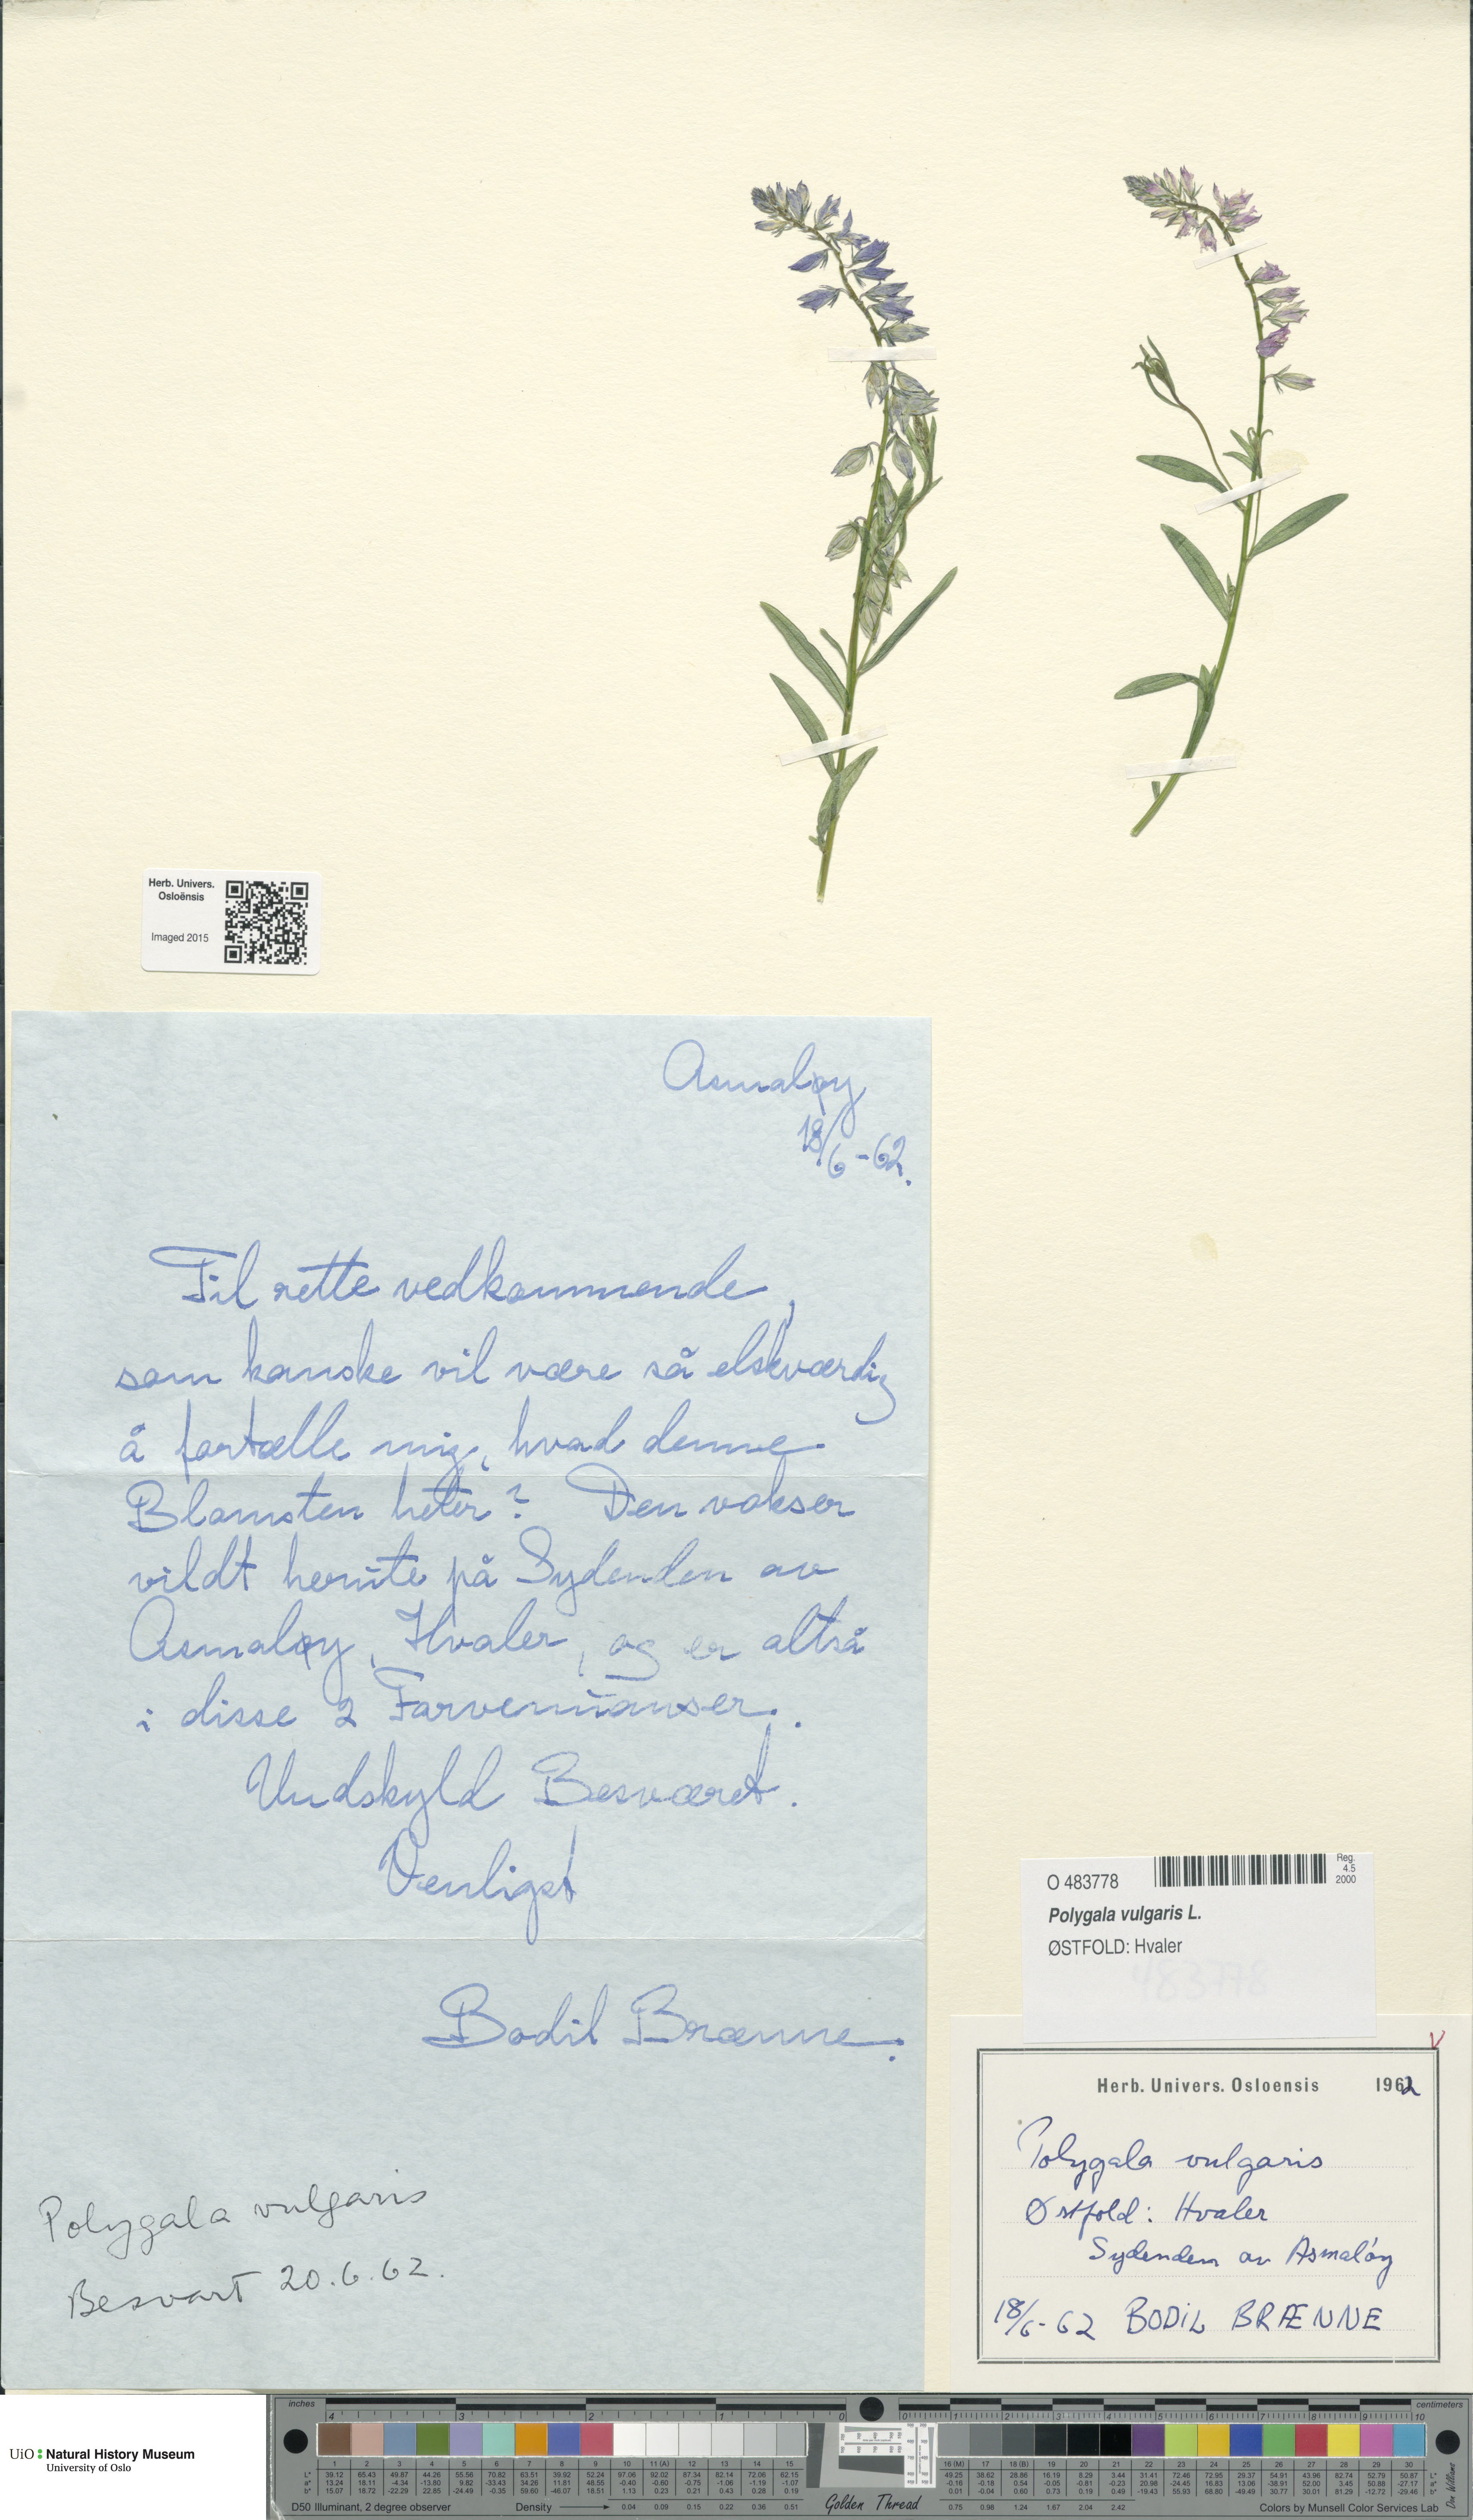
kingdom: Plantae
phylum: Tracheophyta
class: Magnoliopsida
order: Fabales
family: Polygalaceae
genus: Polygala
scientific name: Polygala vulgaris
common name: Common milkwort
